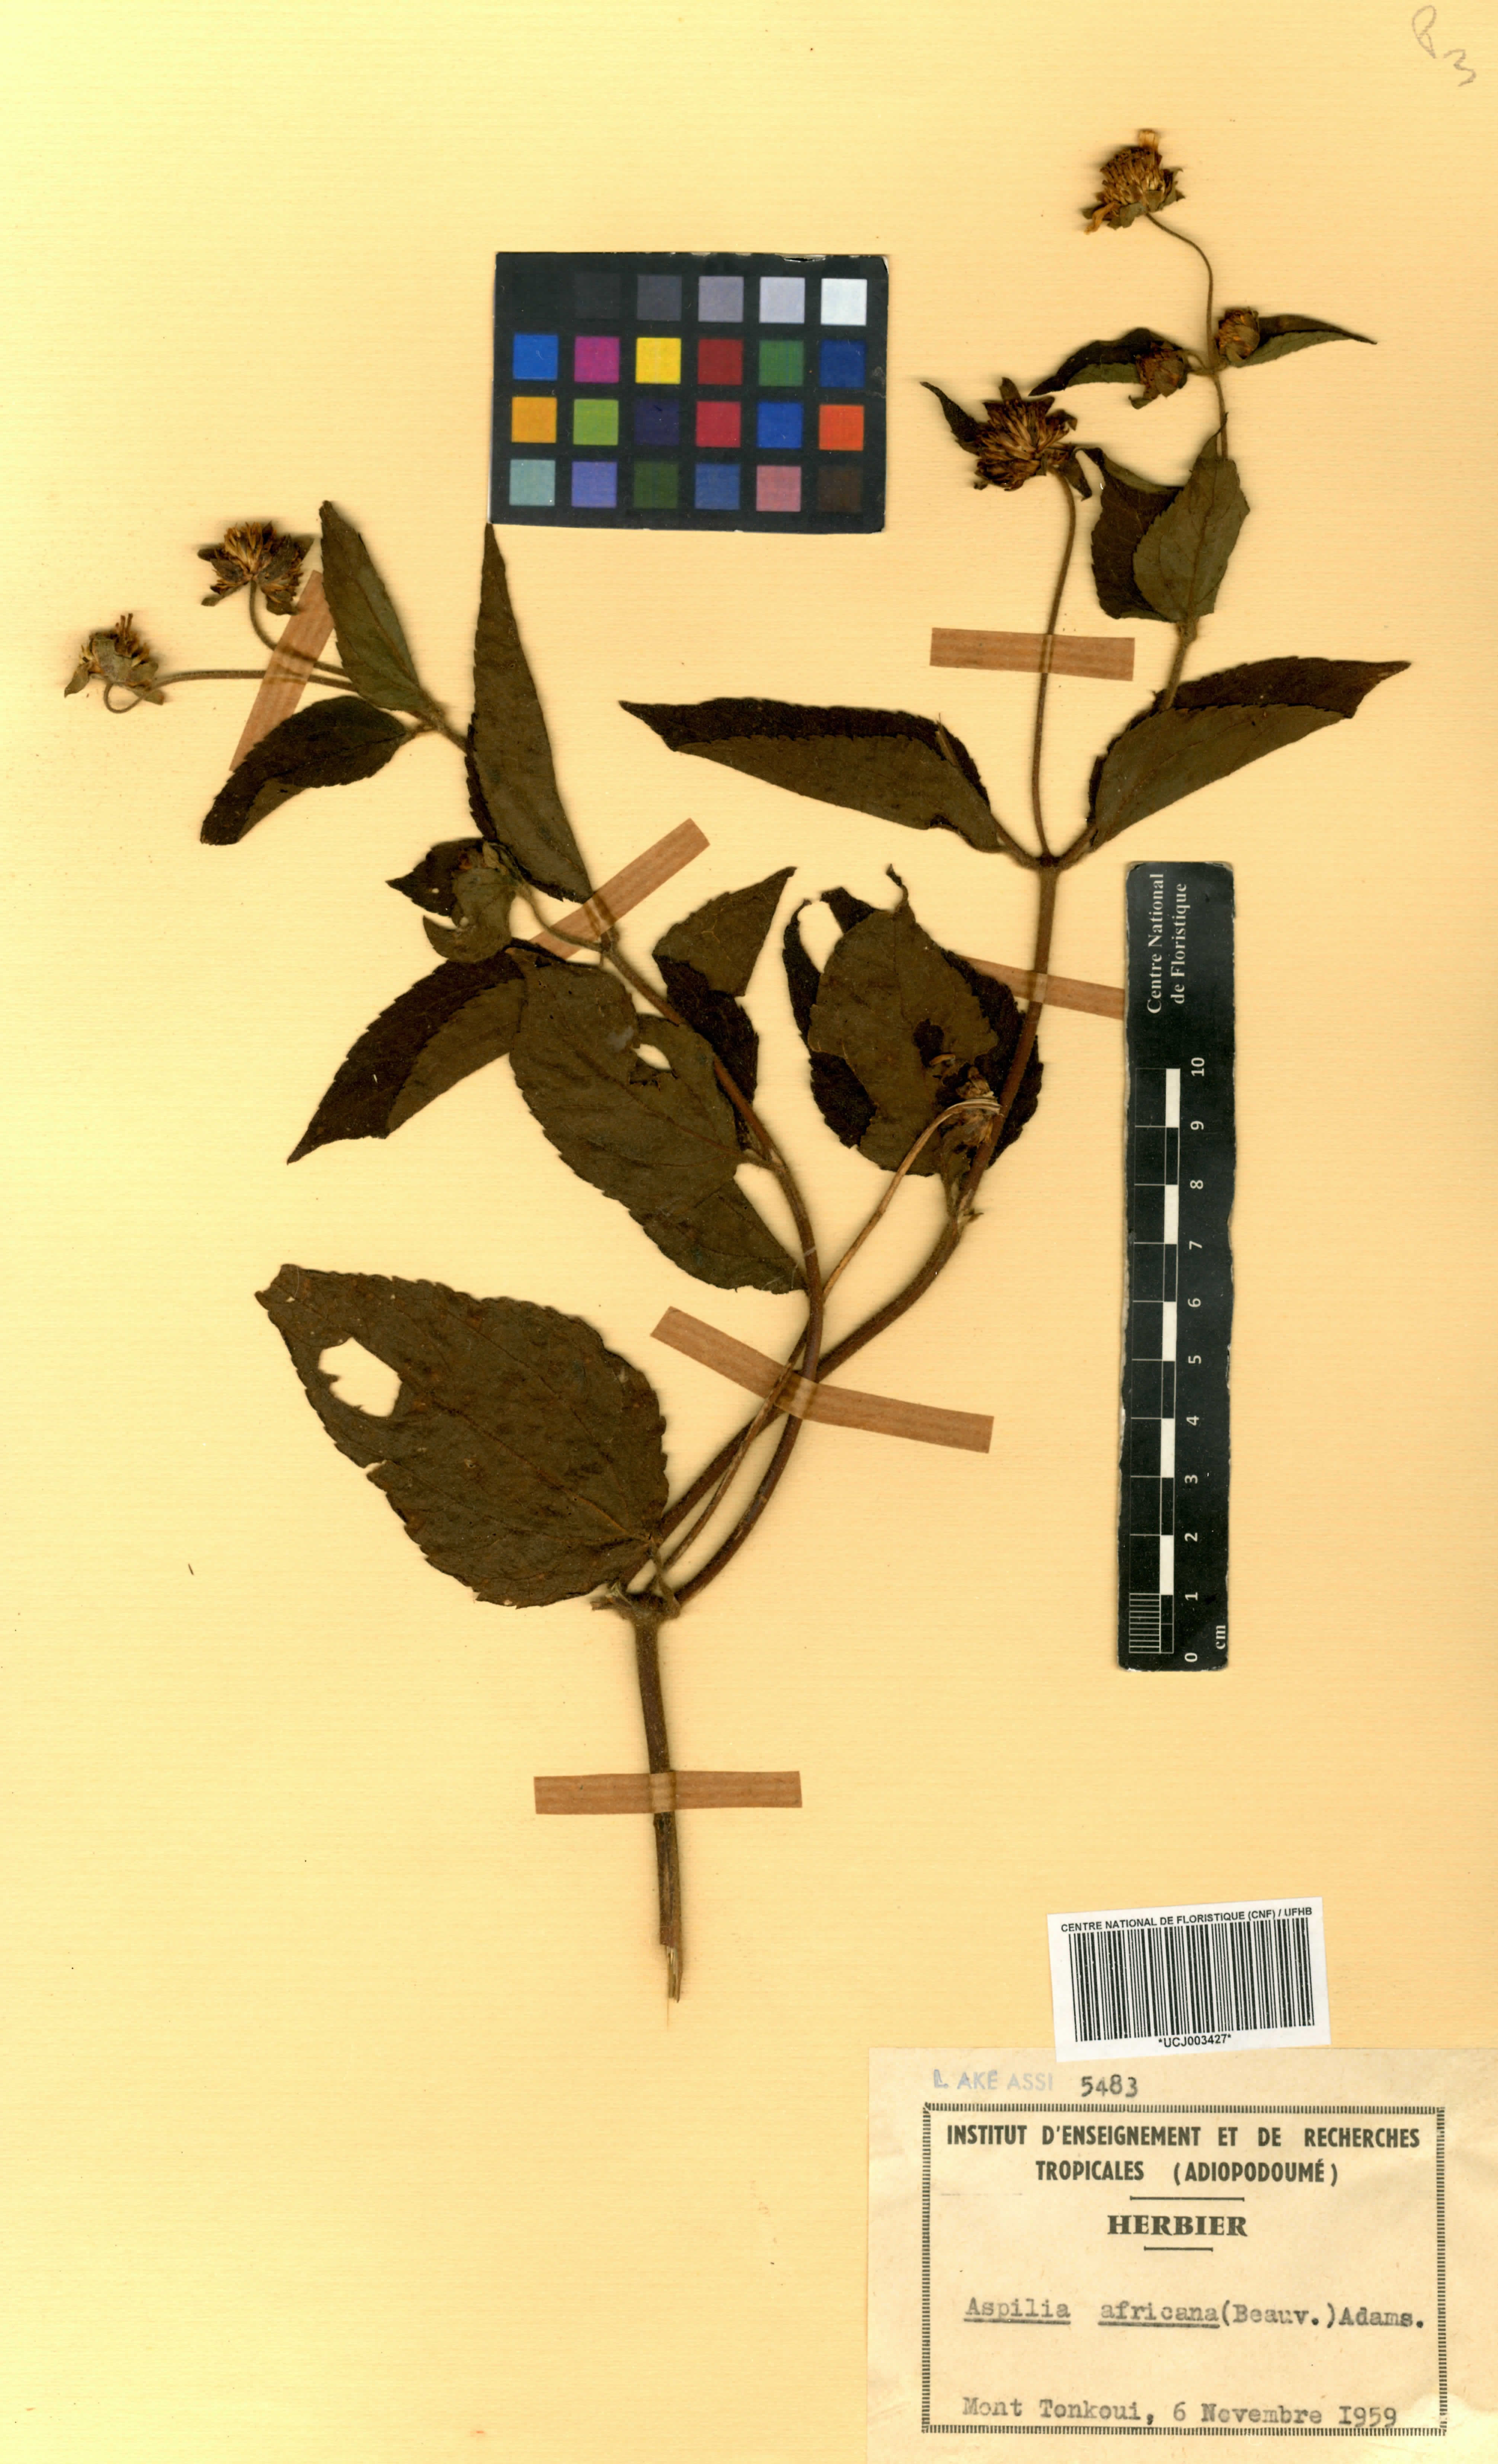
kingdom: Plantae
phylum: Tracheophyta
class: Magnoliopsida
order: Asterales
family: Asteraceae
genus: Aspilia
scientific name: Aspilia africana
